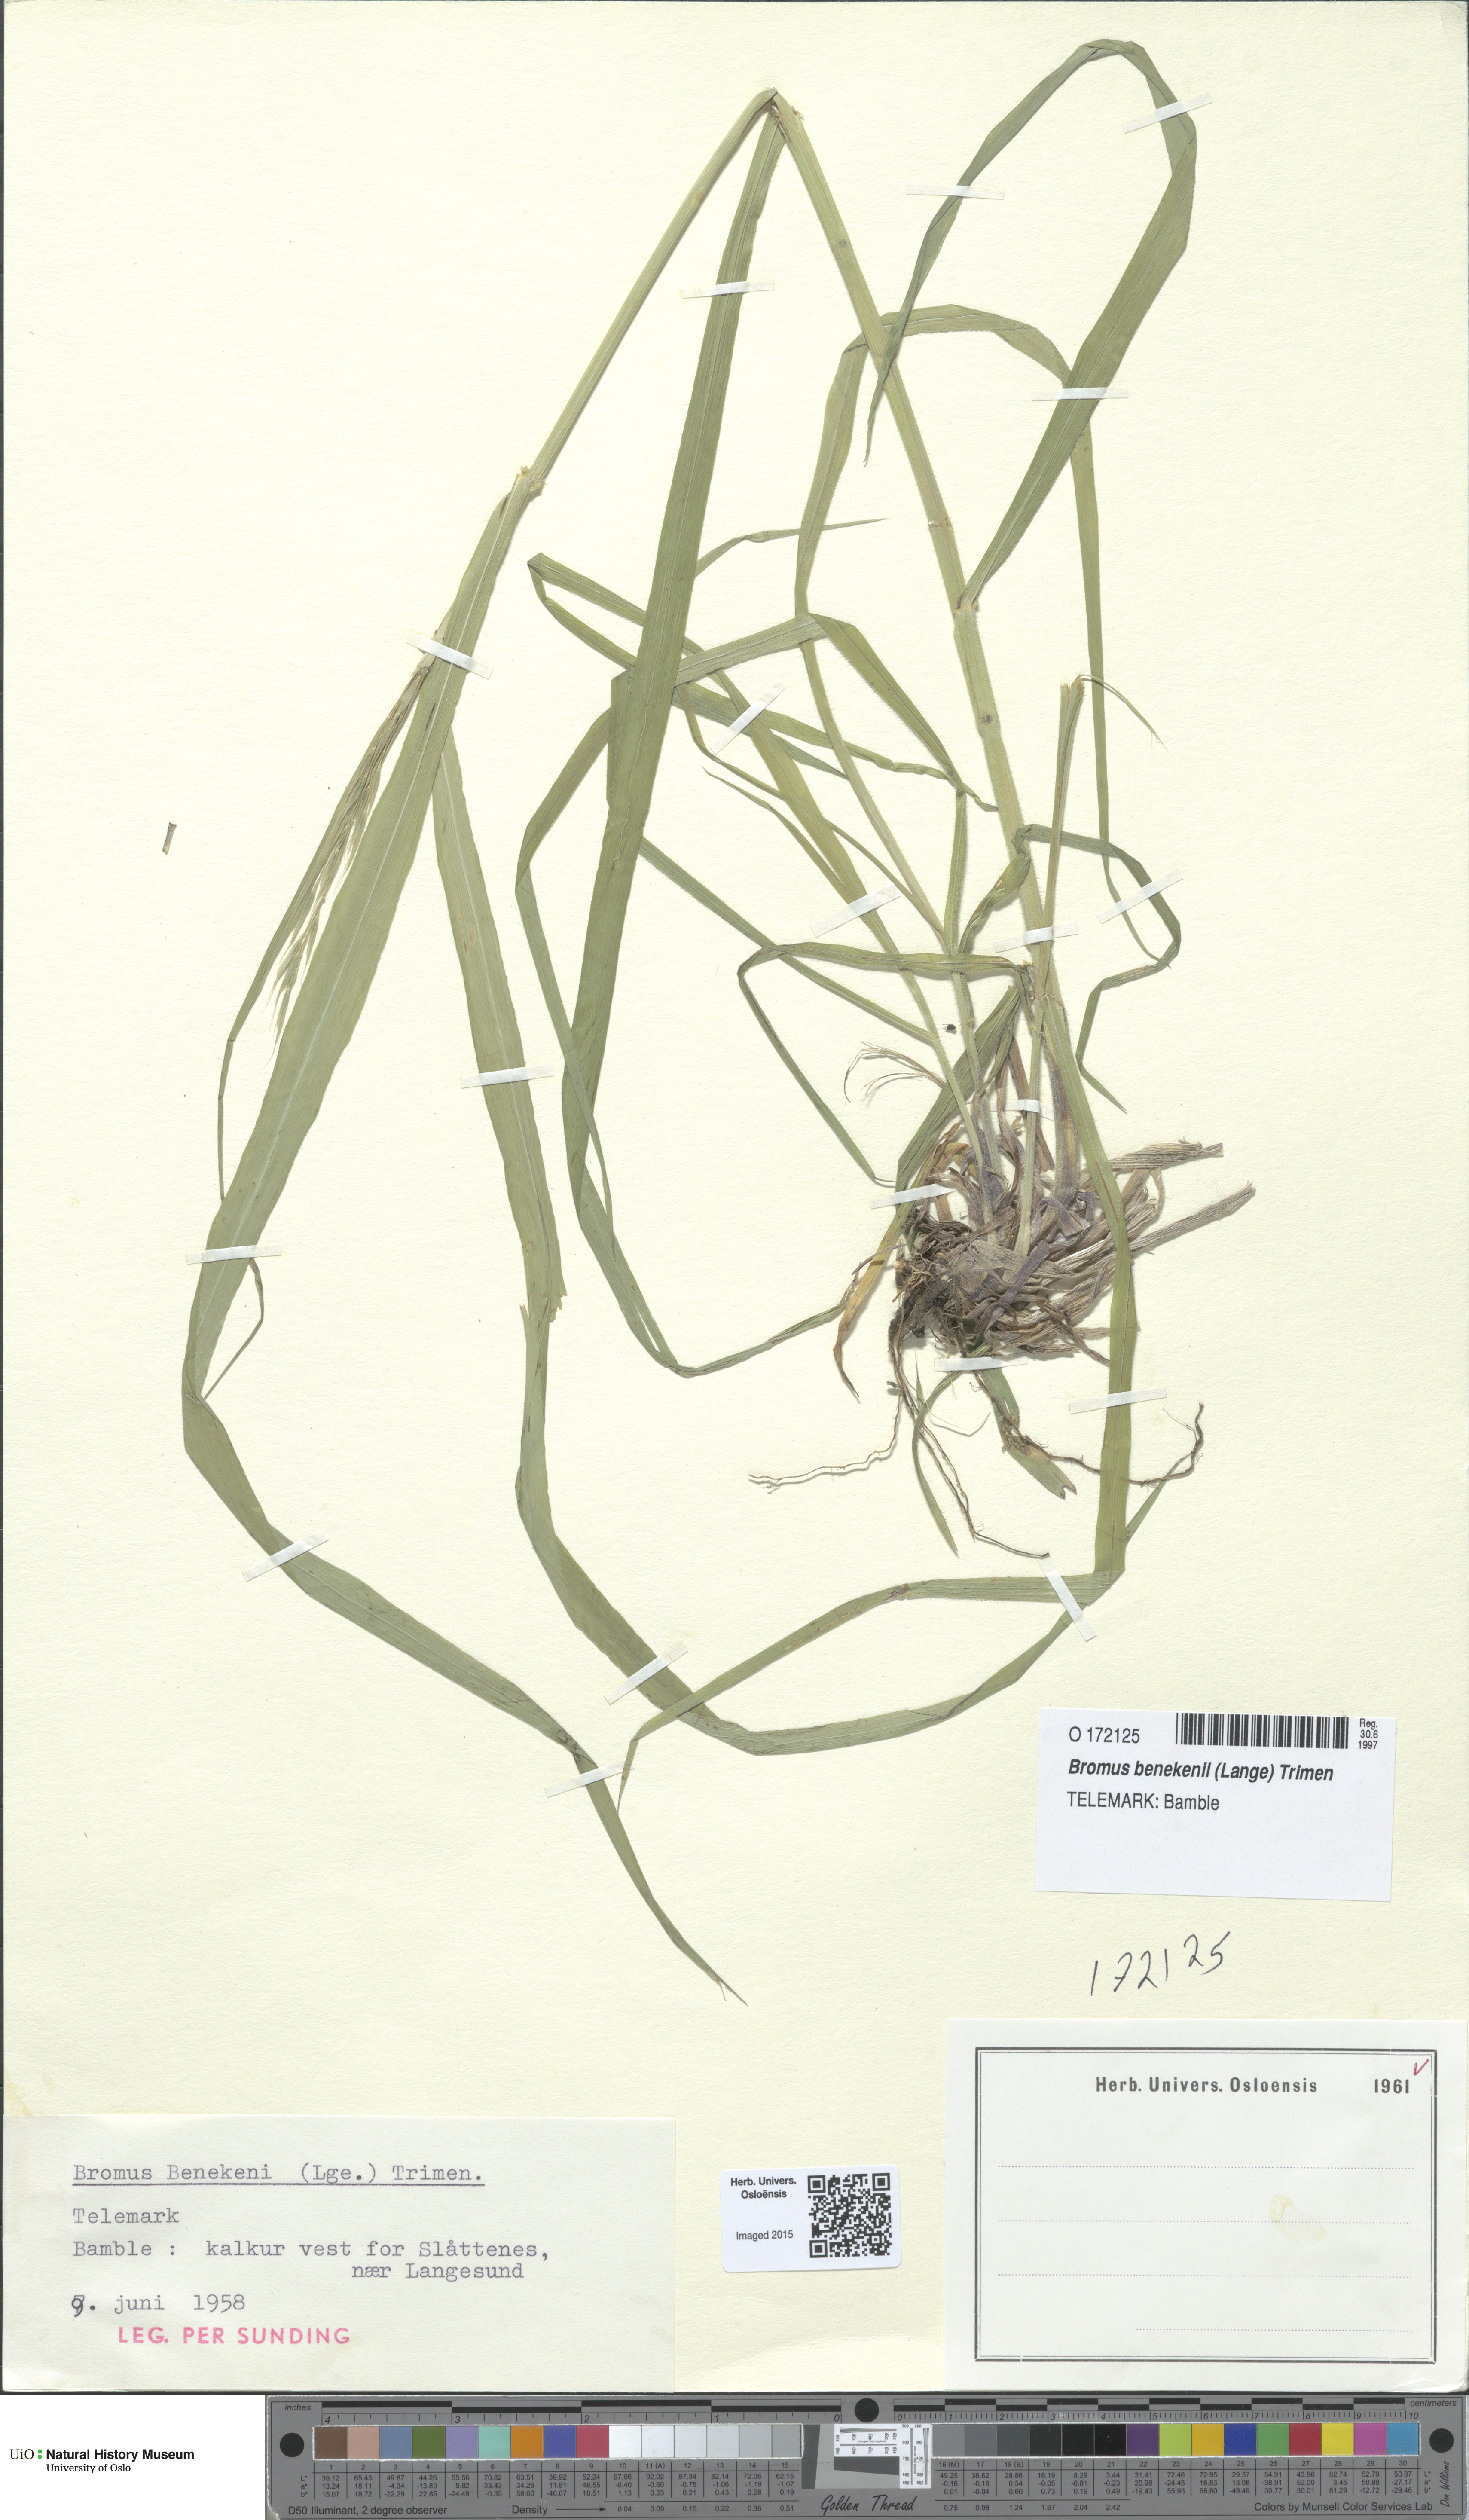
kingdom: Plantae
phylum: Tracheophyta
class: Liliopsida
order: Poales
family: Poaceae
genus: Bromus
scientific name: Bromus benekenii
